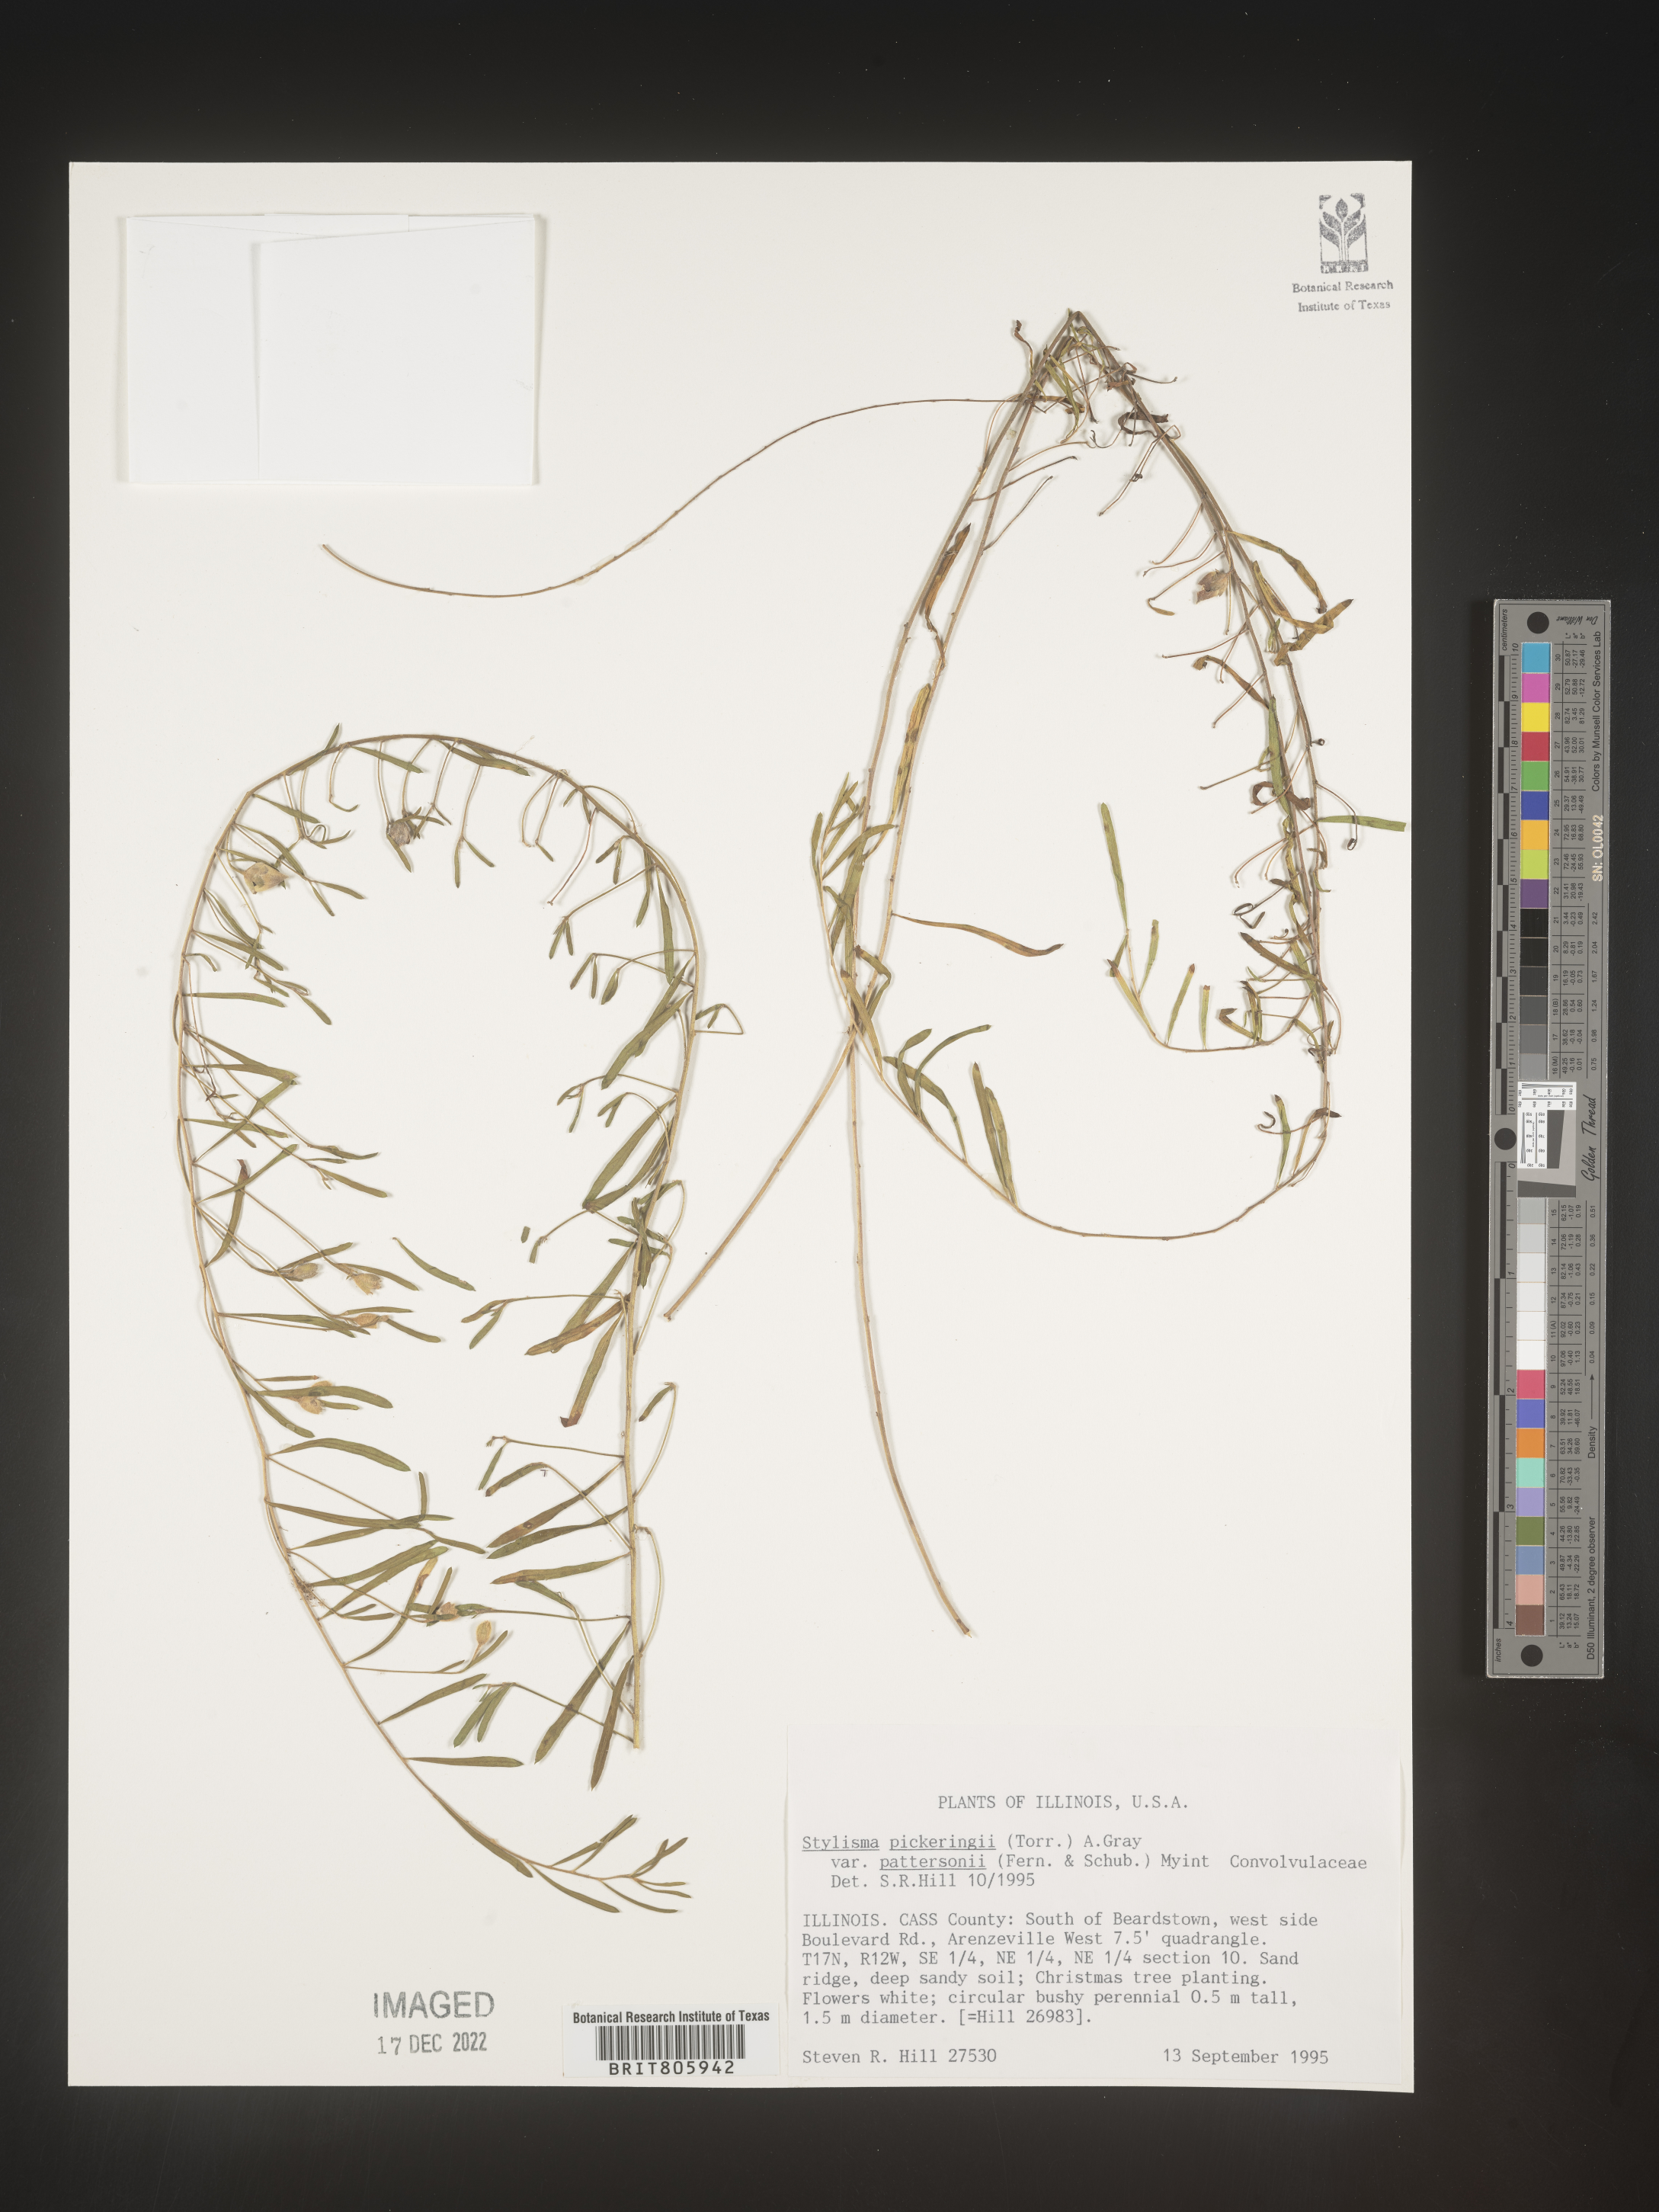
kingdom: Plantae
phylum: Tracheophyta
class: Magnoliopsida
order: Solanales
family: Convolvulaceae
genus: Stylisma
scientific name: Stylisma
